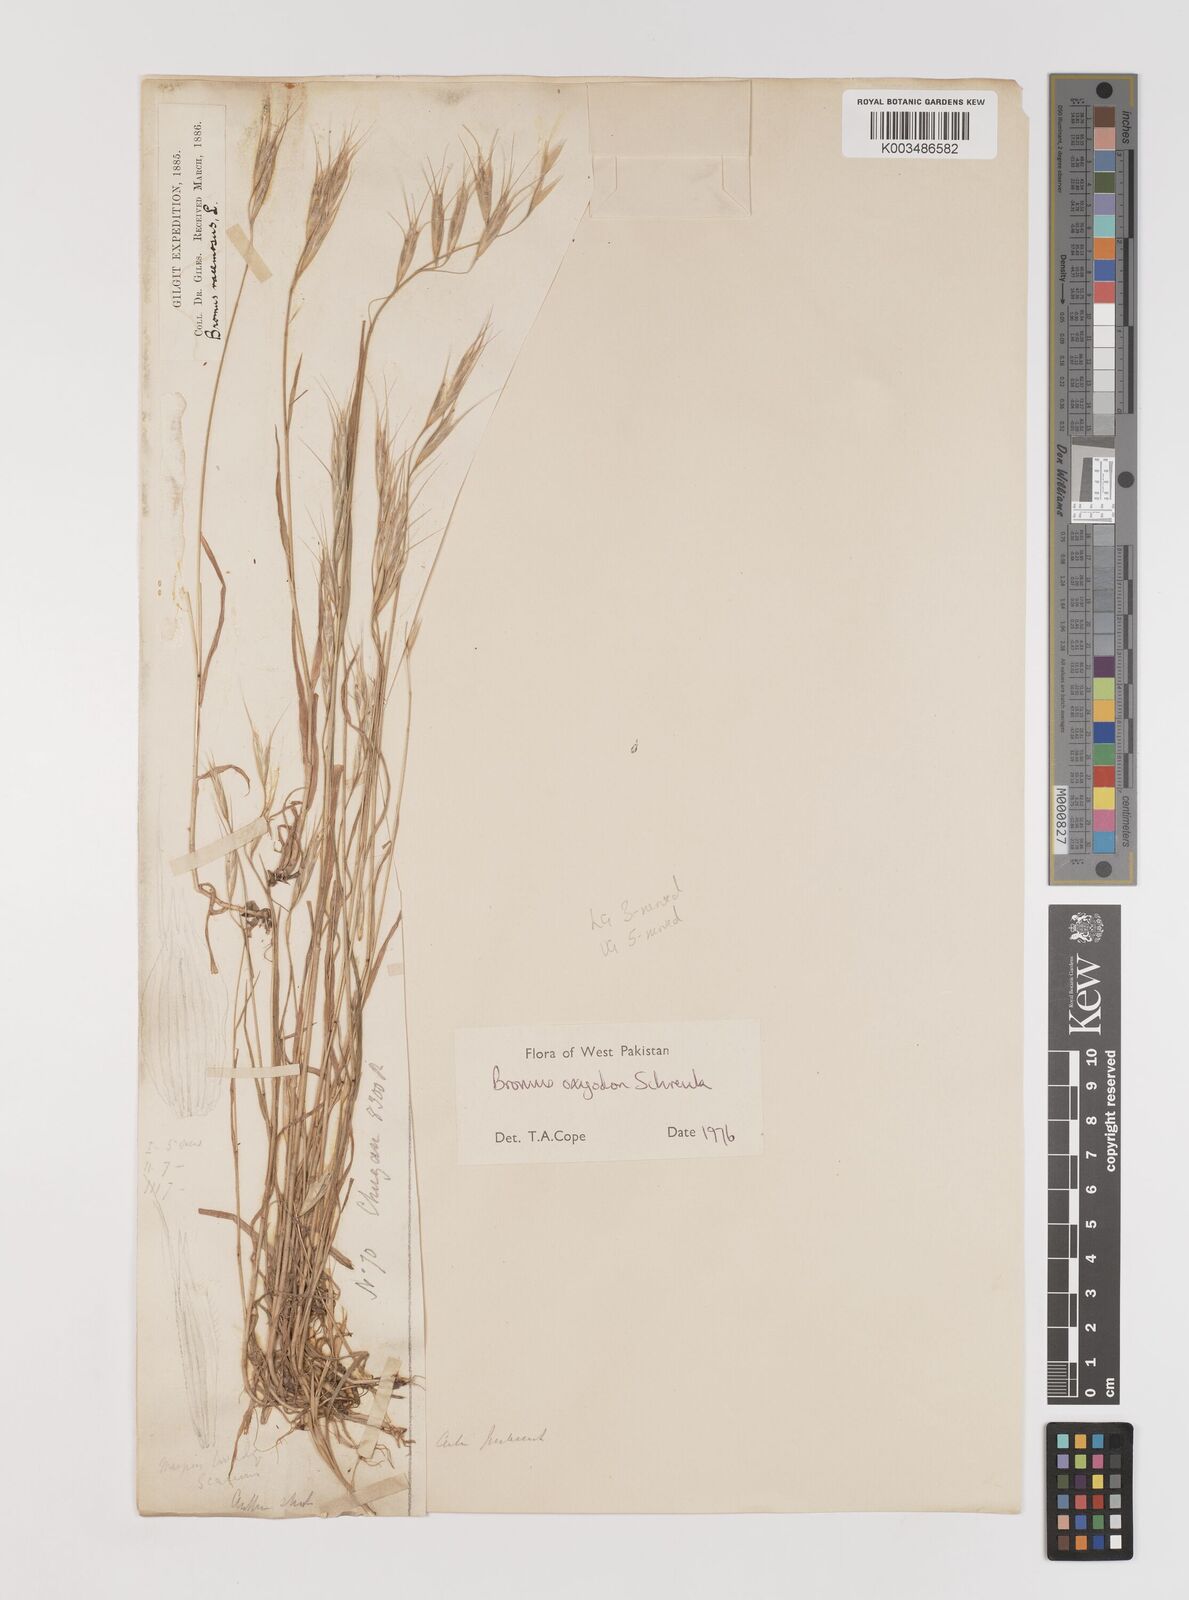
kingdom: Plantae
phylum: Tracheophyta
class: Liliopsida
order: Poales
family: Poaceae
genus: Bromus
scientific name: Bromus oxyodon
